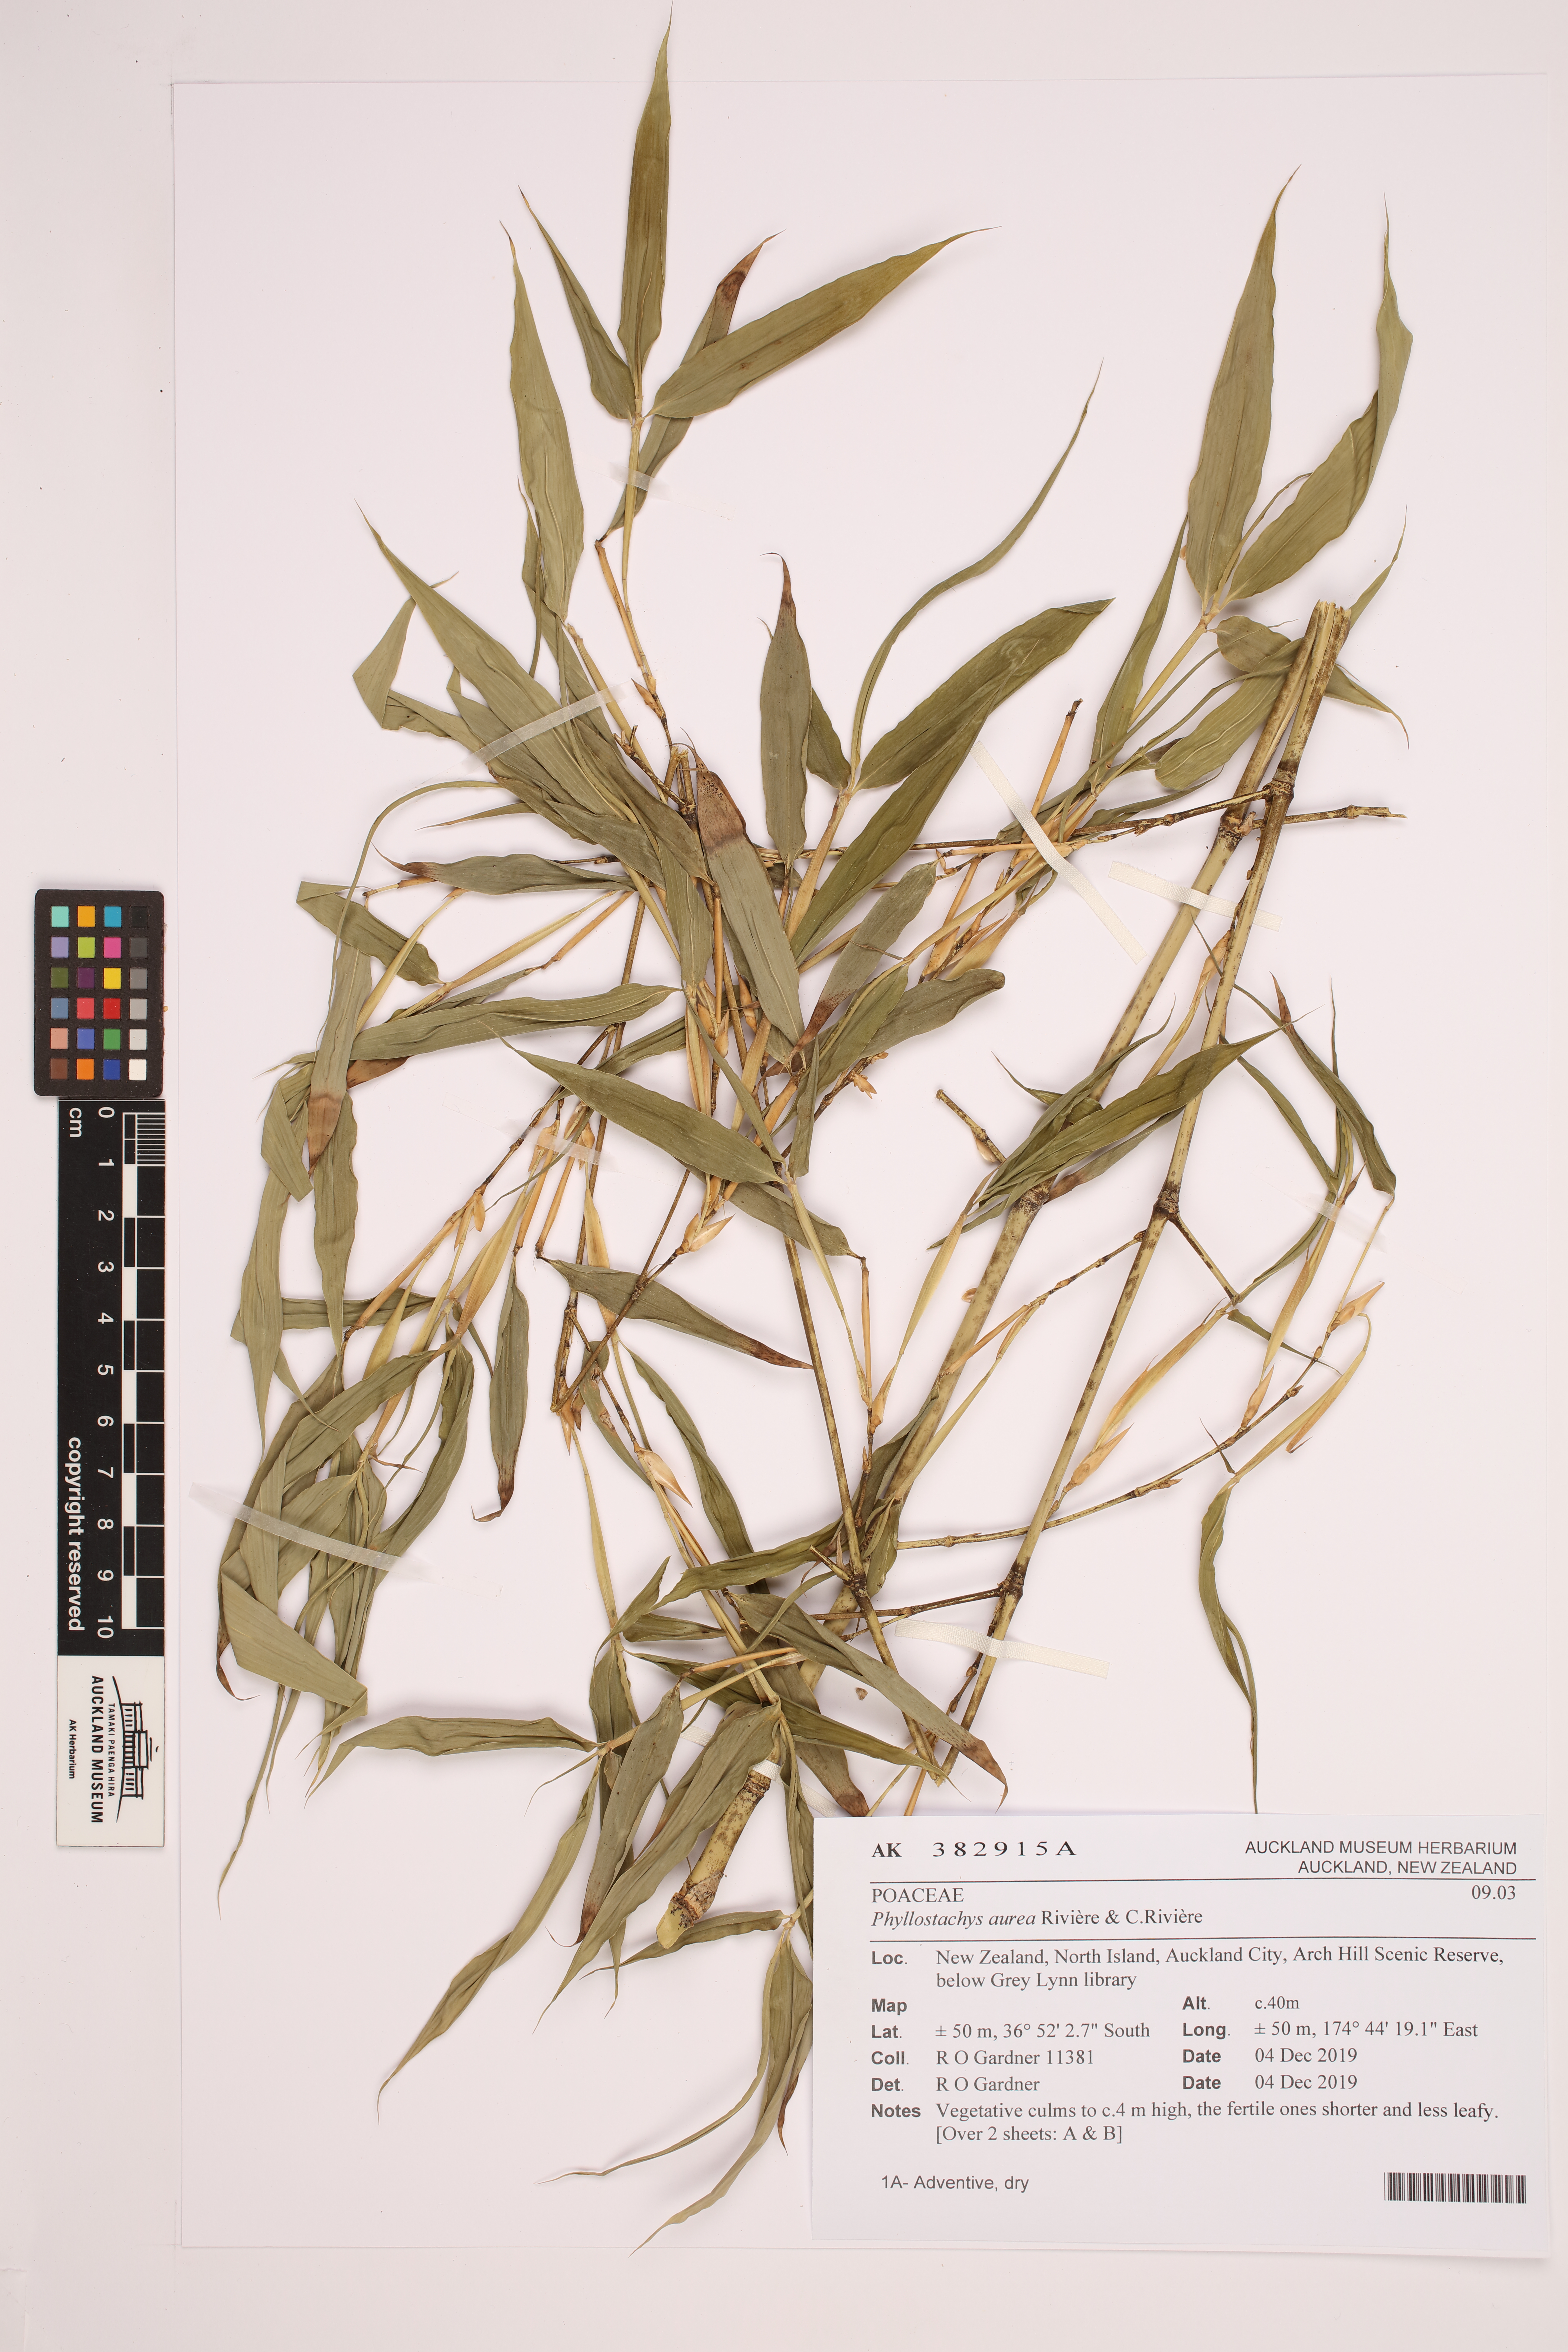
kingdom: Plantae
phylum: Tracheophyta
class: Liliopsida
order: Poales
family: Poaceae
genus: Phyllostachys
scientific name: Phyllostachys aurea
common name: Golden bamboo
